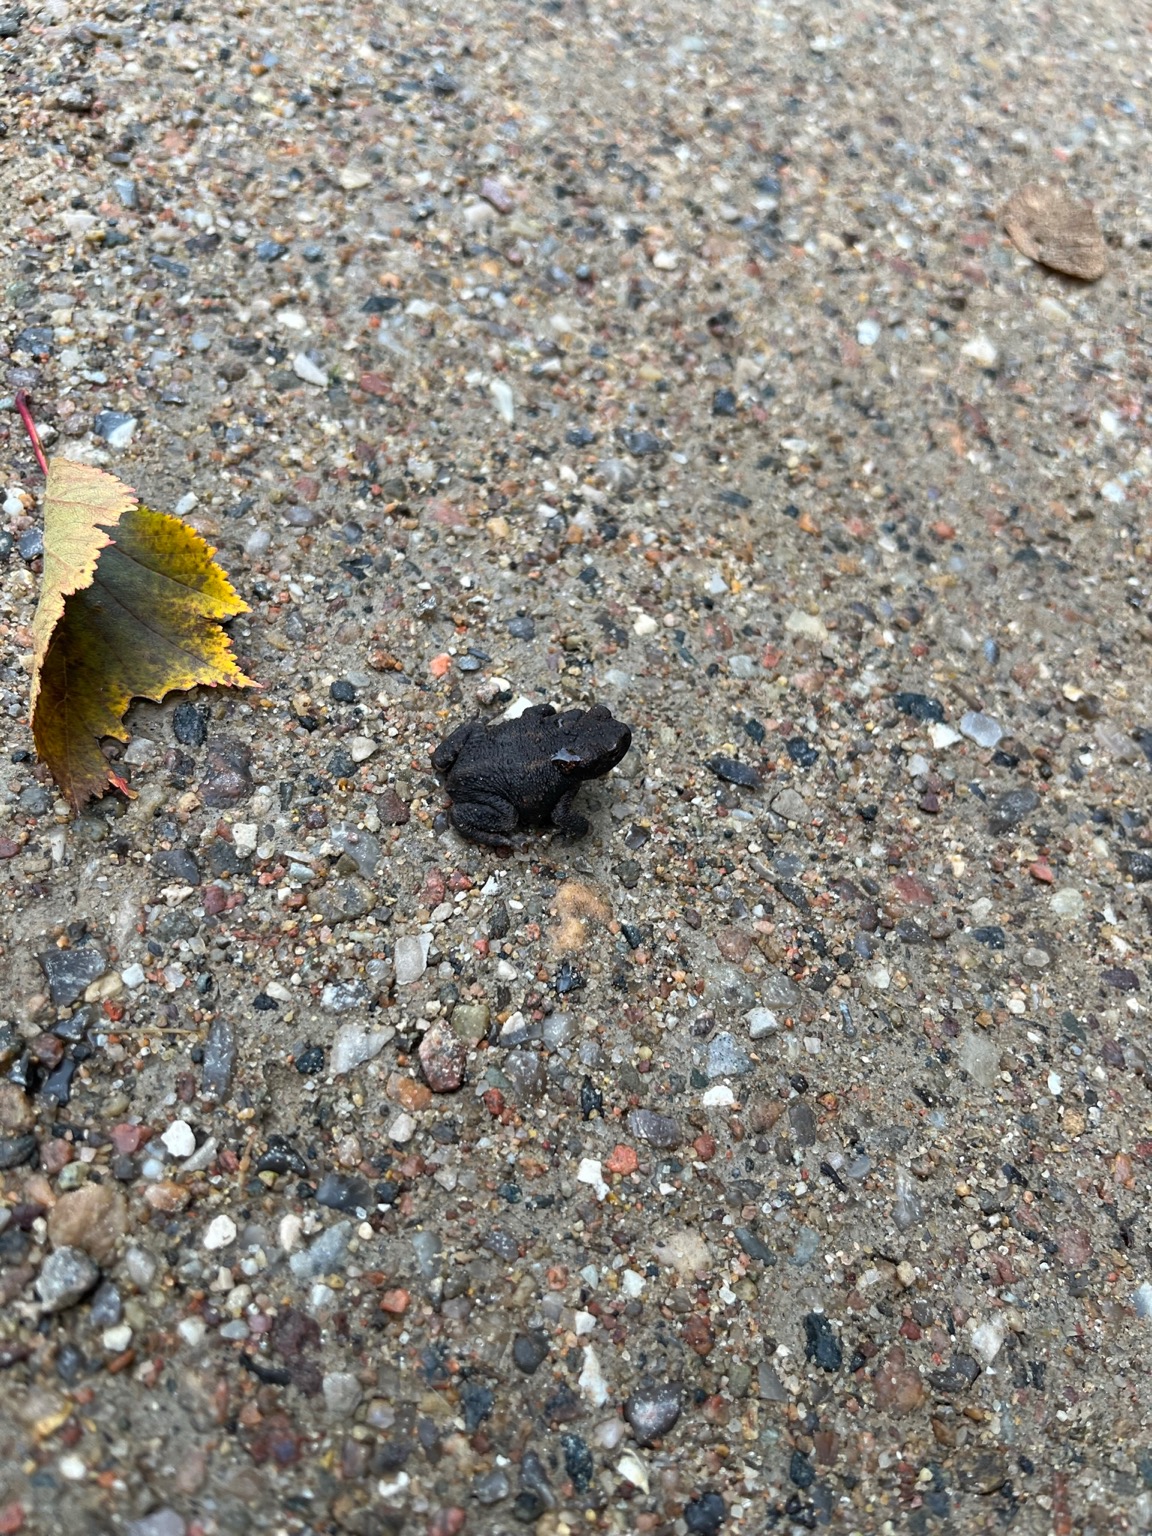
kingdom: Animalia
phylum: Chordata
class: Amphibia
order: Anura
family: Bufonidae
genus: Bufo
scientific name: Bufo bufo
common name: Skrubtudse
